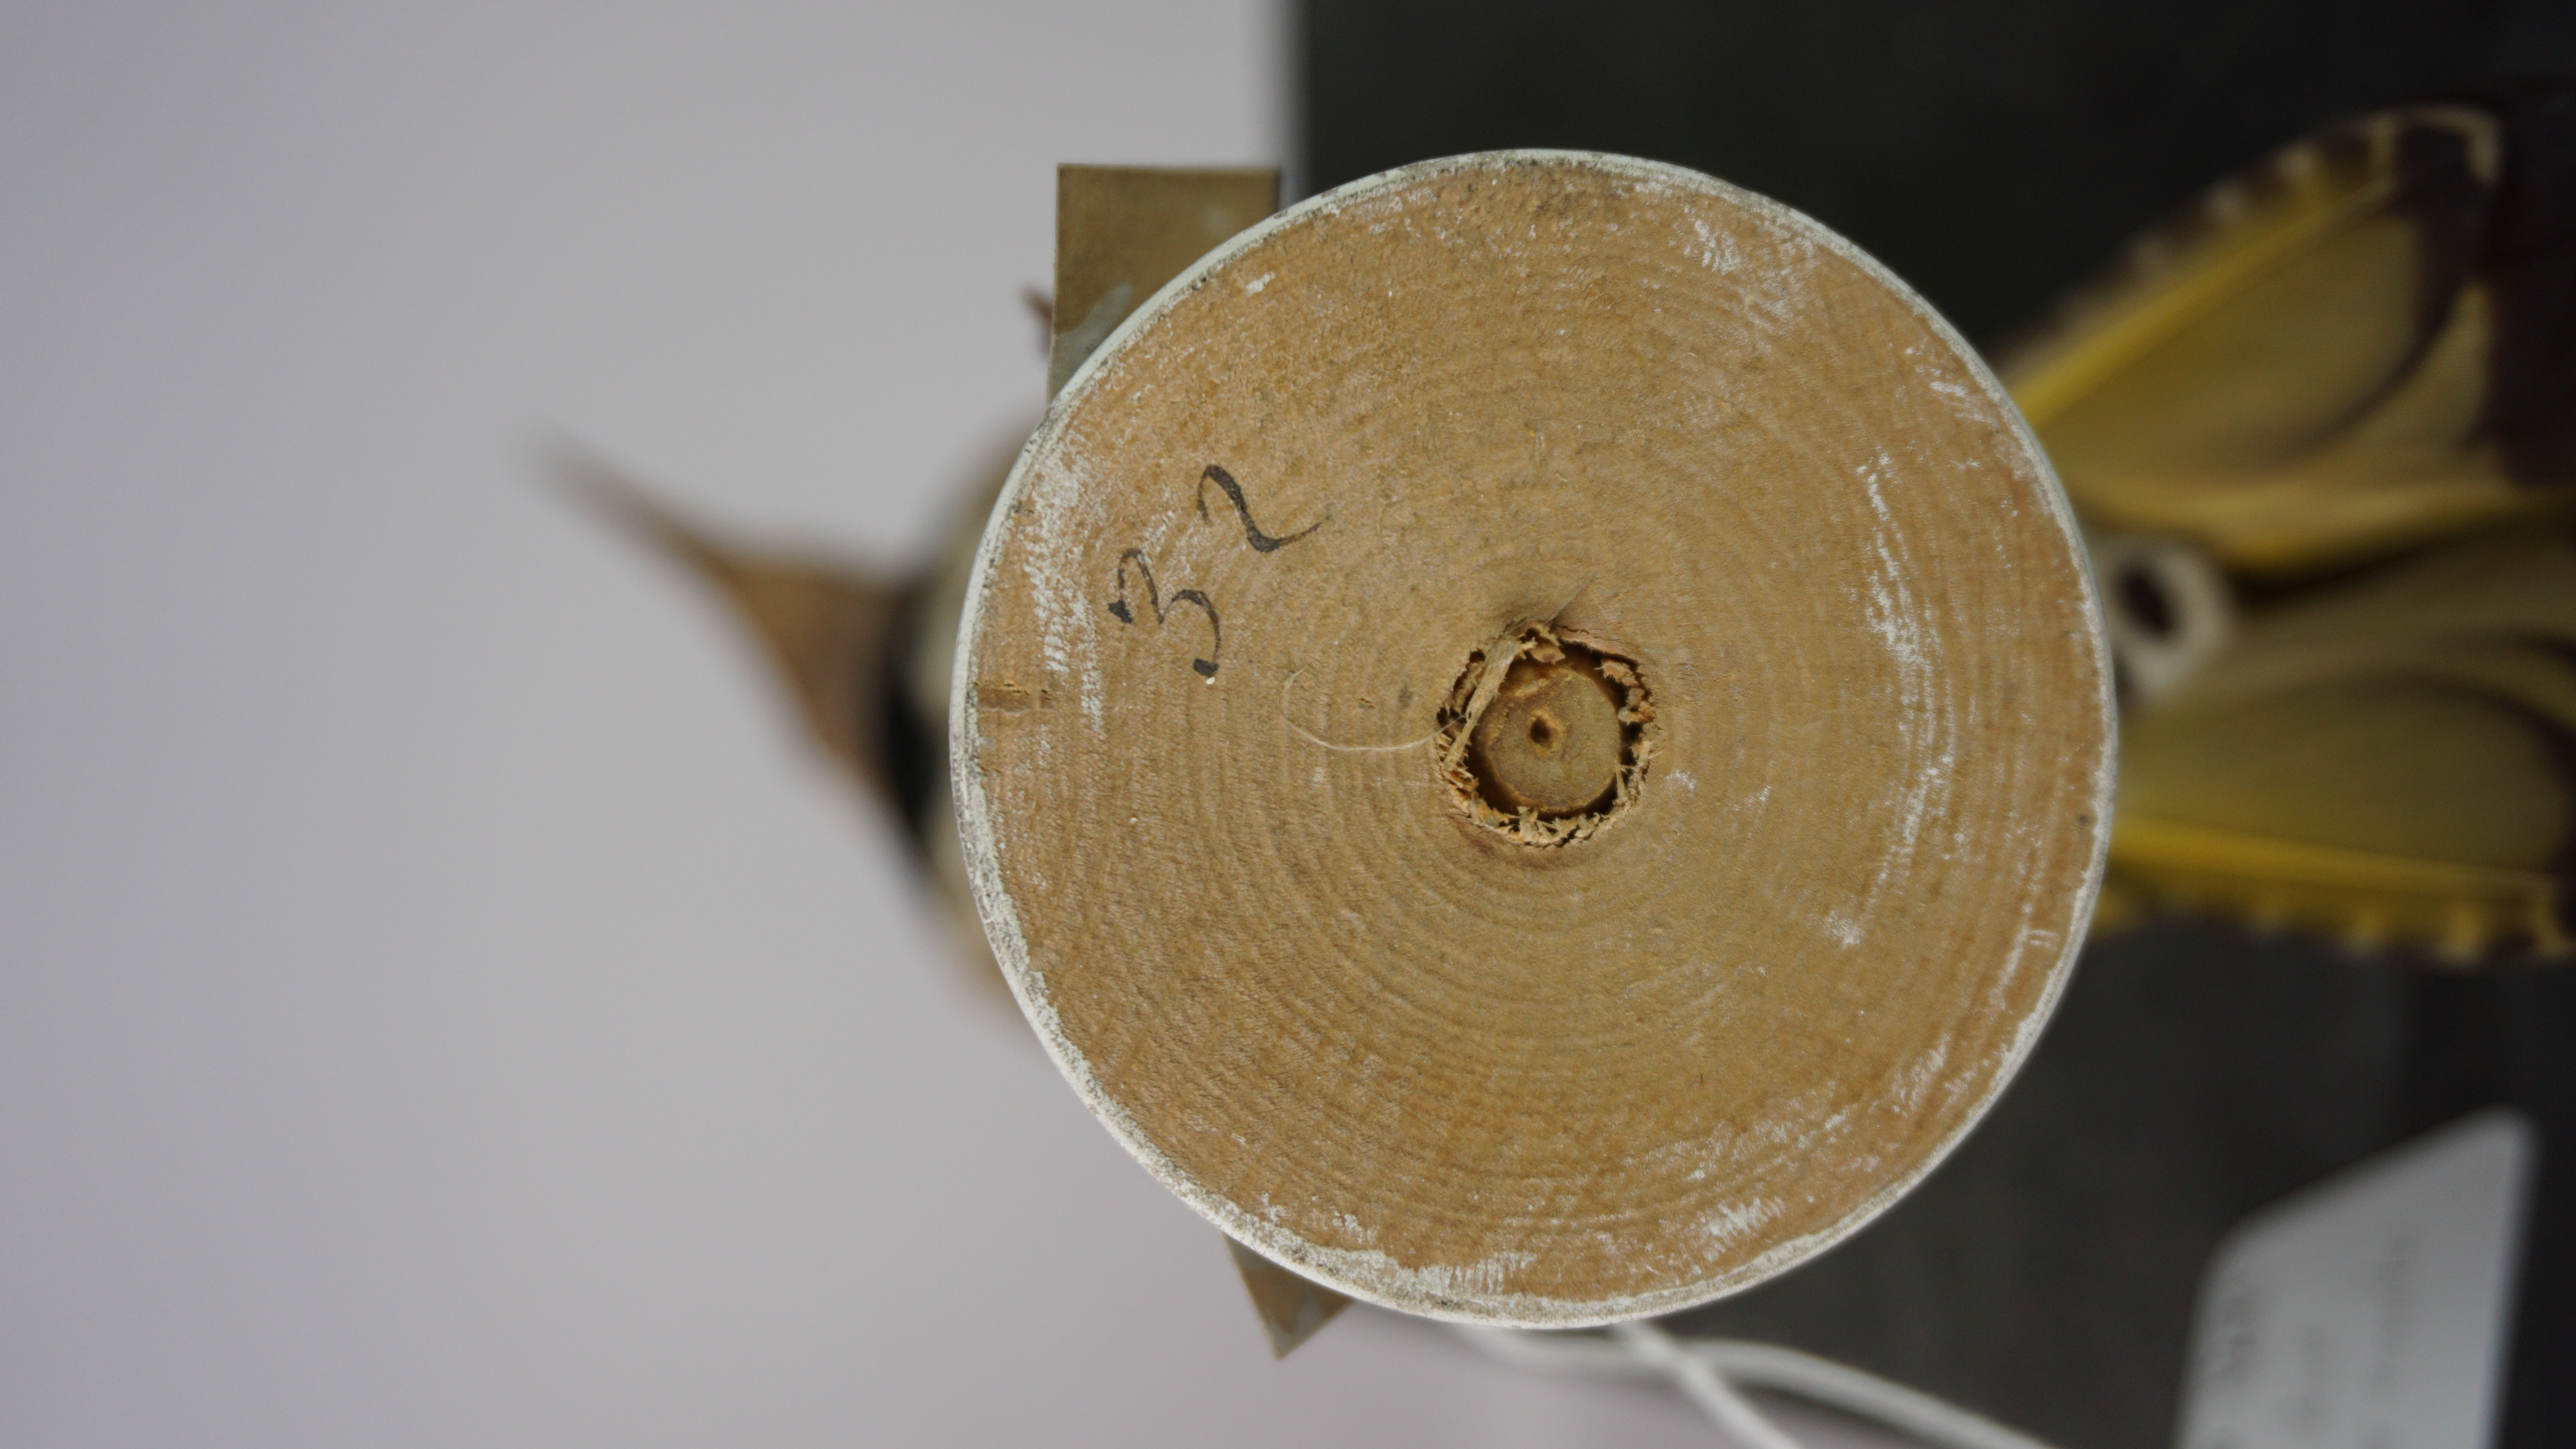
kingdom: Animalia
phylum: Chordata
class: Aves
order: Piciformes
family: Picidae
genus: Colaptes
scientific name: Colaptes auratus
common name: Northern flicker
